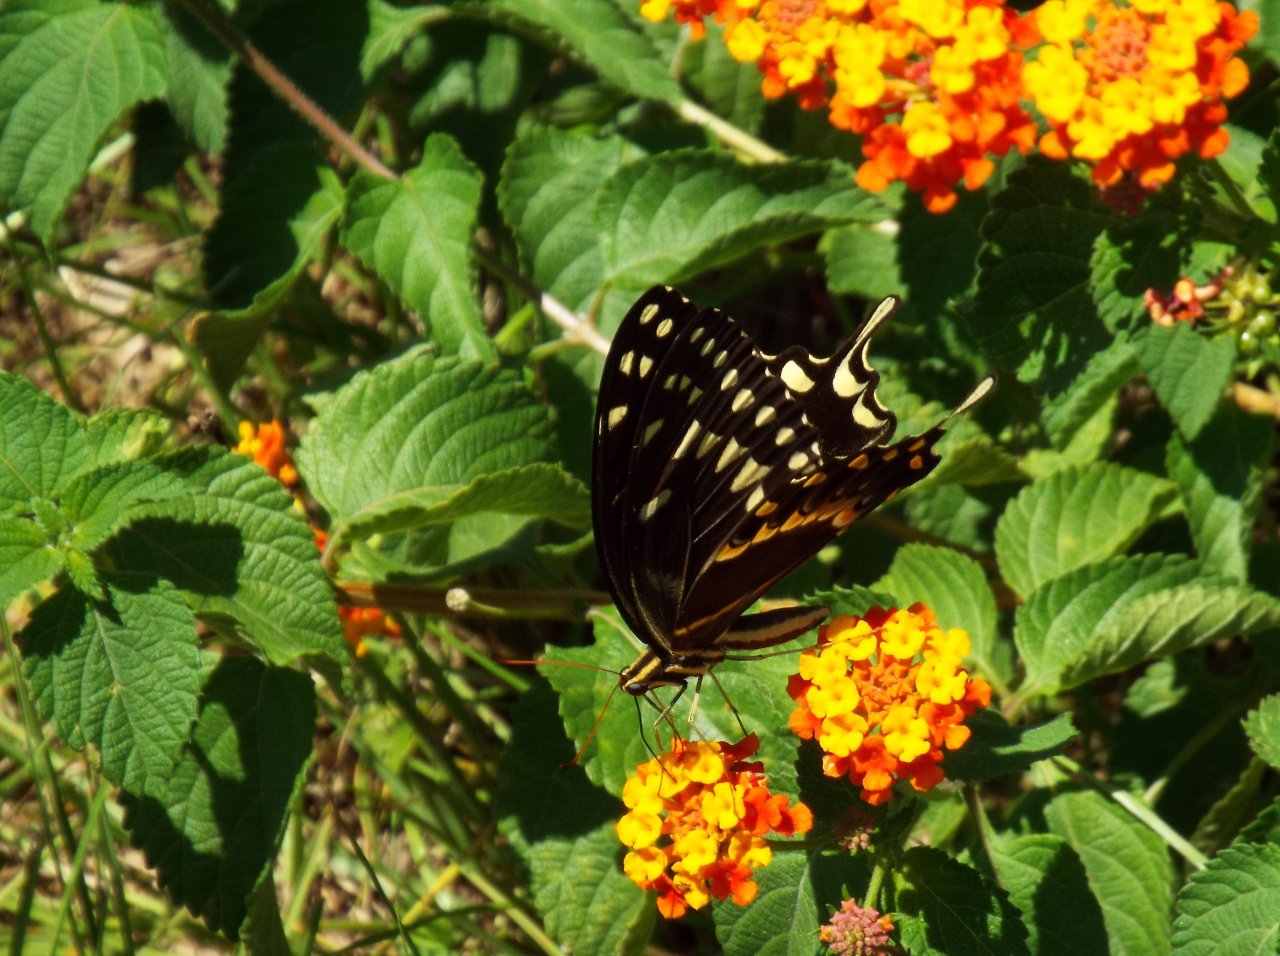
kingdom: Animalia
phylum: Arthropoda
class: Insecta
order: Lepidoptera
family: Papilionidae
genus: Pterourus
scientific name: Pterourus palamedes
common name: Palamedes Swallowtail
